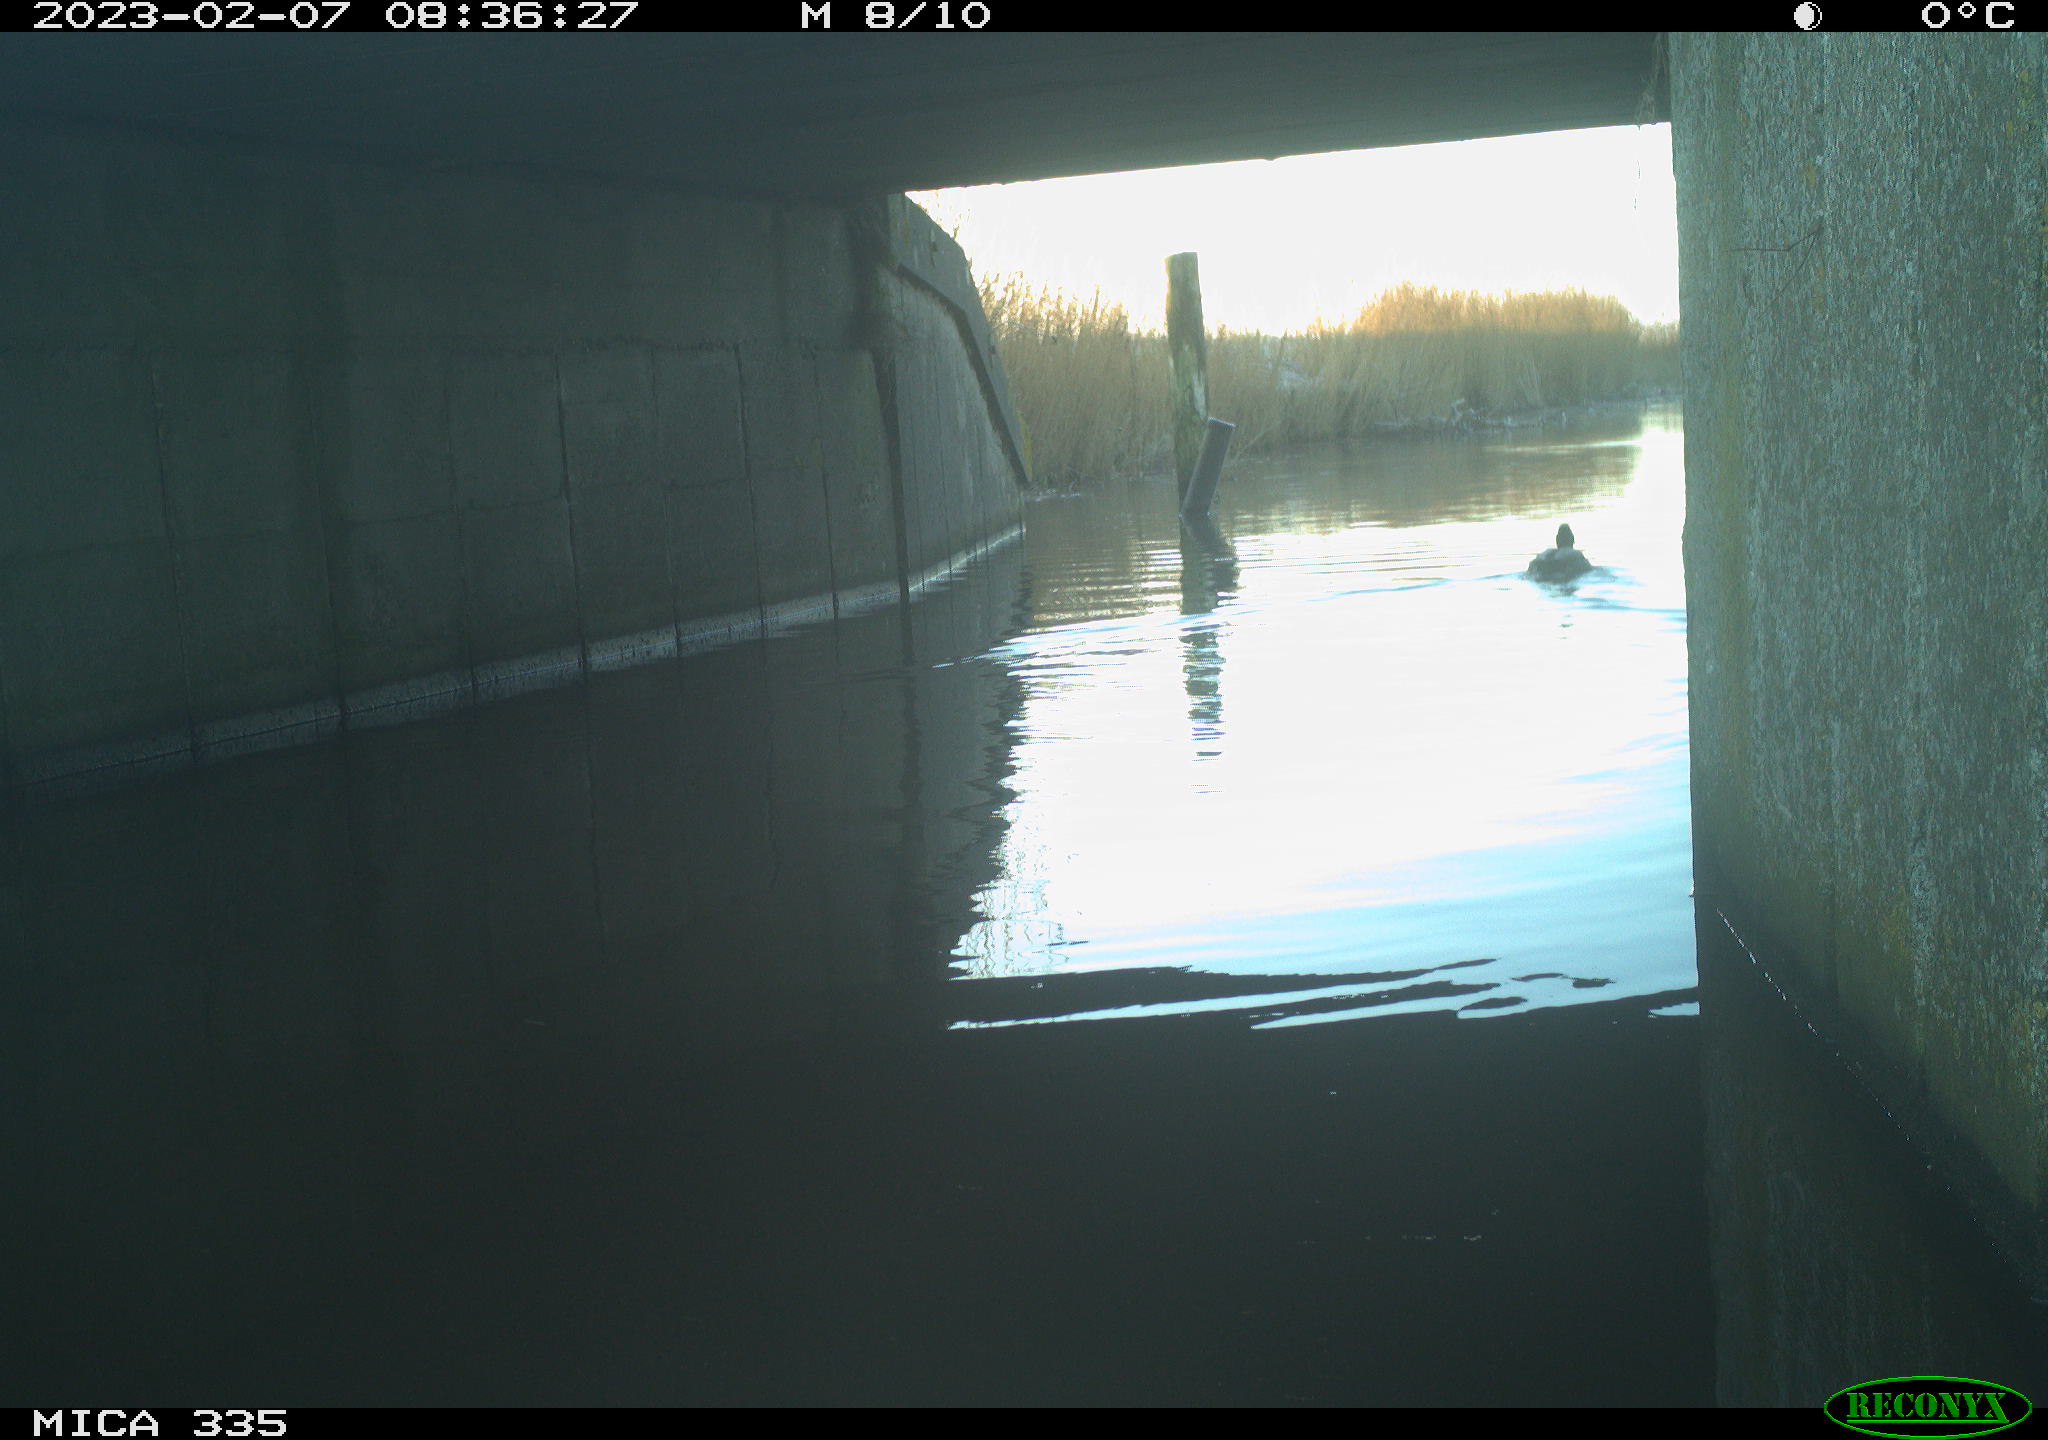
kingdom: Animalia
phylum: Chordata
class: Aves
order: Anseriformes
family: Anatidae
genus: Anas
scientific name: Anas
